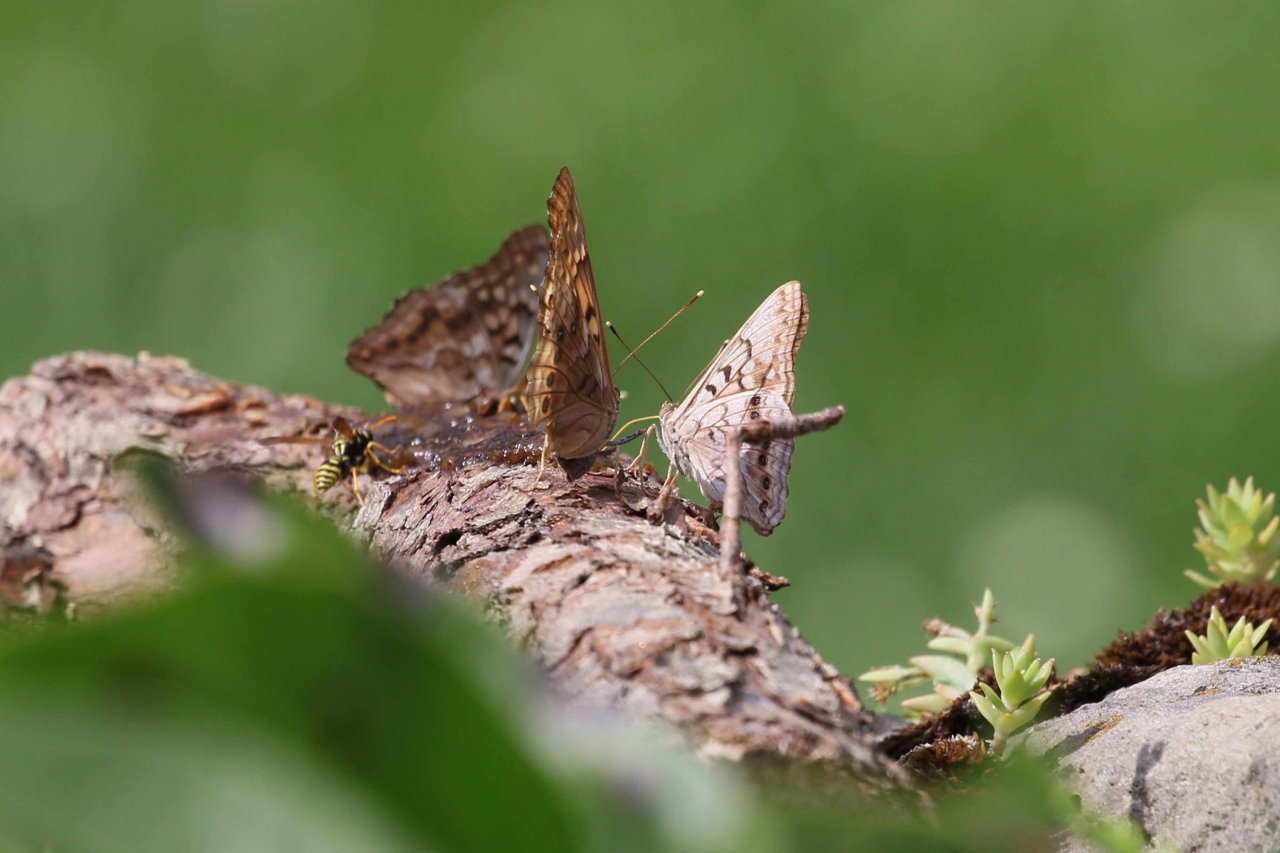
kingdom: Animalia
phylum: Arthropoda
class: Insecta
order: Lepidoptera
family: Nymphalidae
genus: Asterocampa
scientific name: Asterocampa clyton
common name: Tawny Emperor
